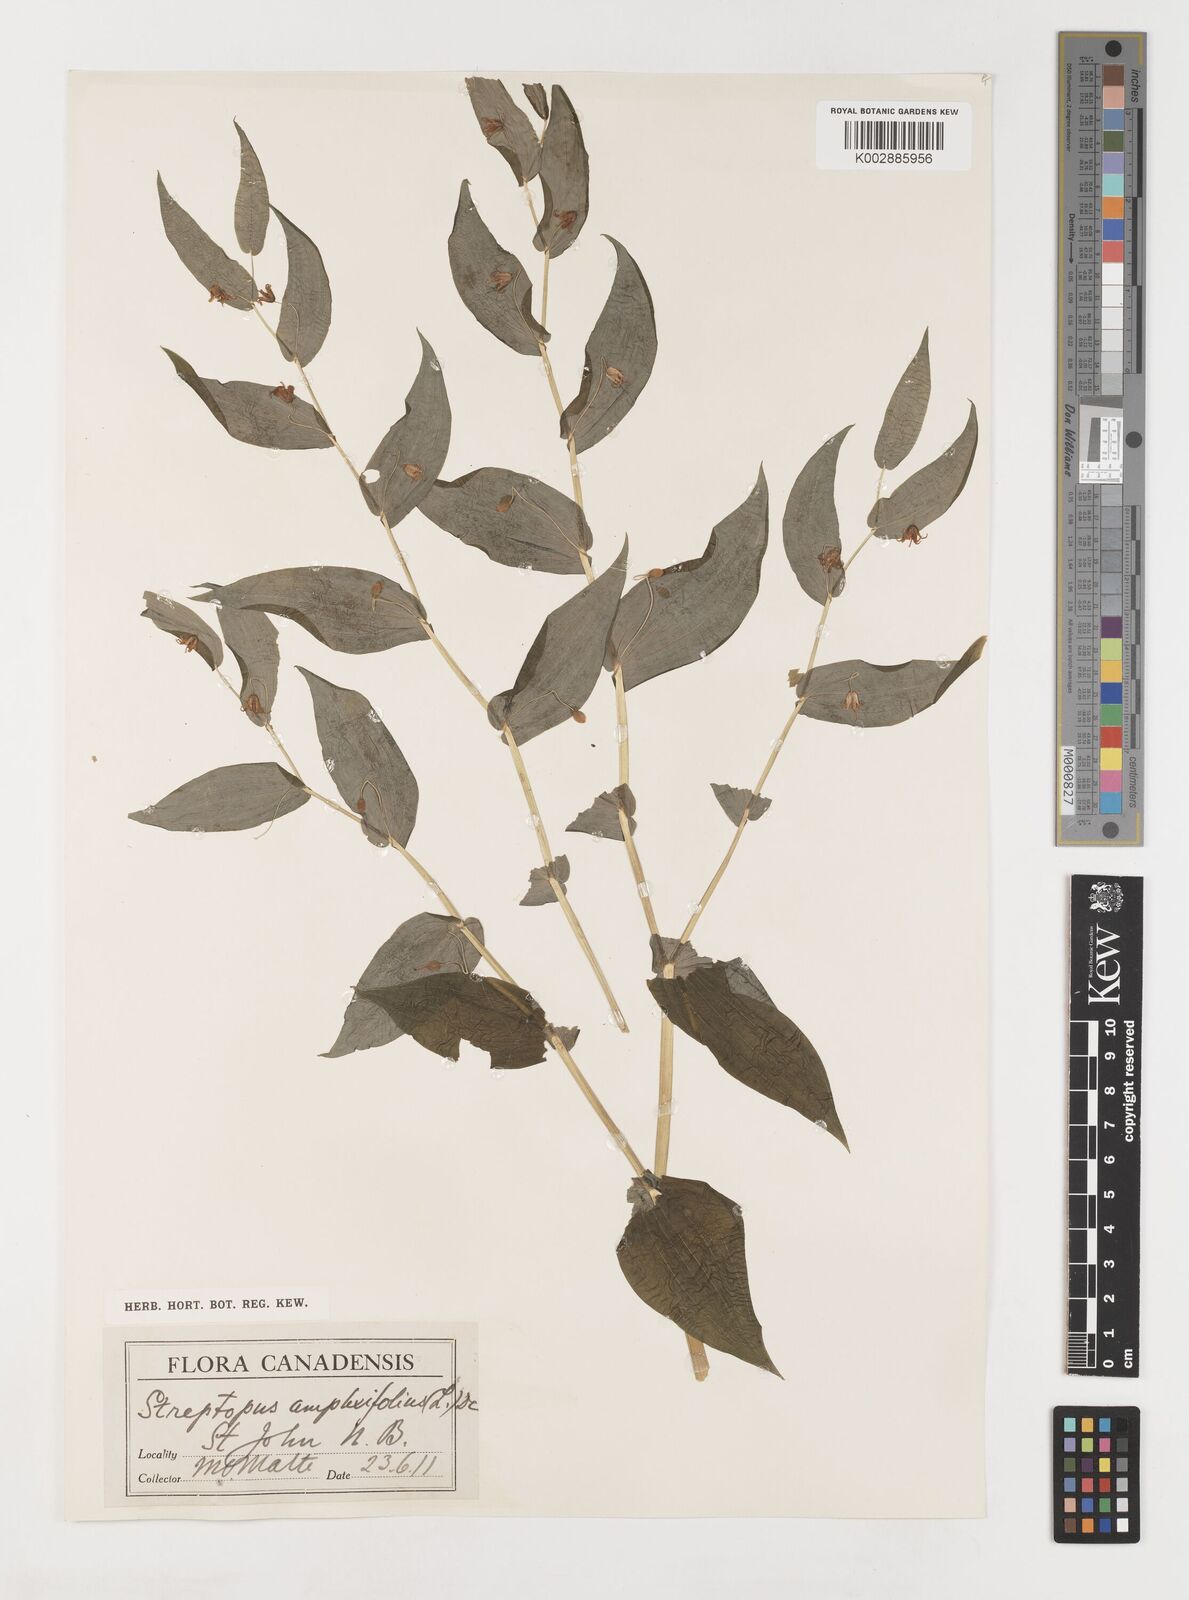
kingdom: Plantae
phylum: Tracheophyta
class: Liliopsida
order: Liliales
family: Liliaceae
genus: Streptopus
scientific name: Streptopus amplexifolius
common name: Clasp twisted stalk
